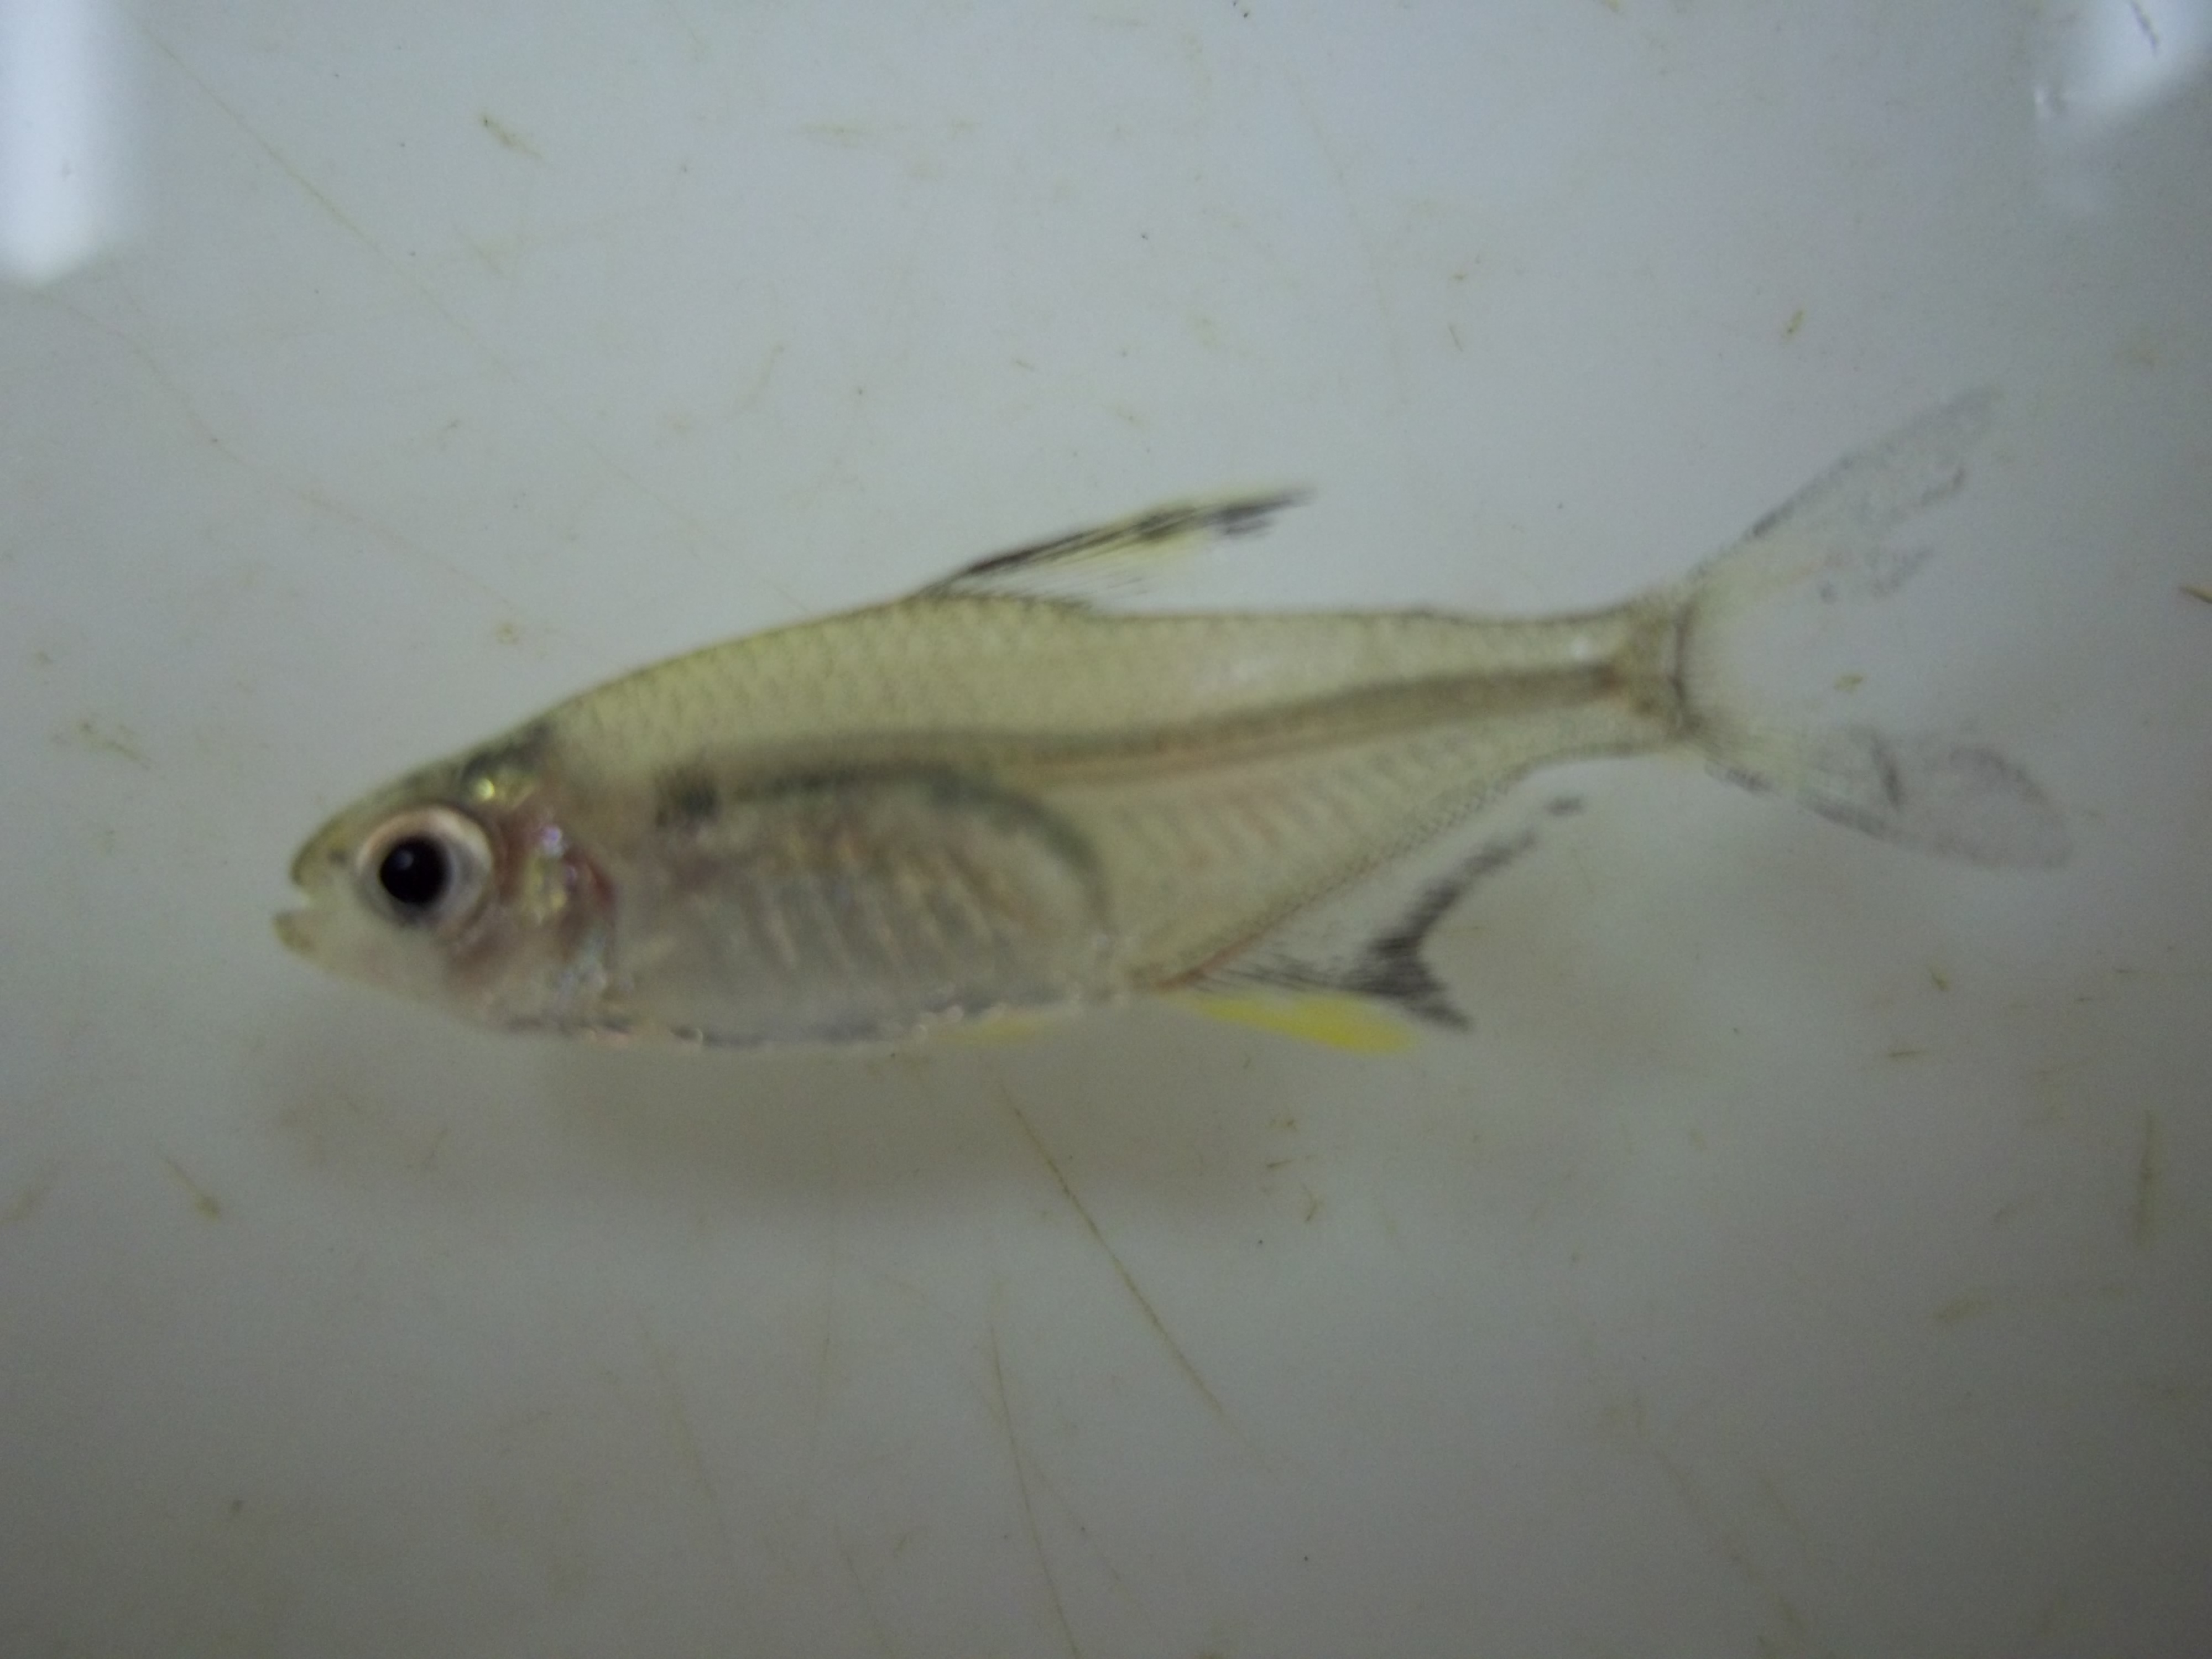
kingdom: Animalia
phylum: Chordata
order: Characiformes
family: Characidae
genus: Hyphessobrycon
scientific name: Hyphessobrycon pulchripinnis
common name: Lemon tetra
